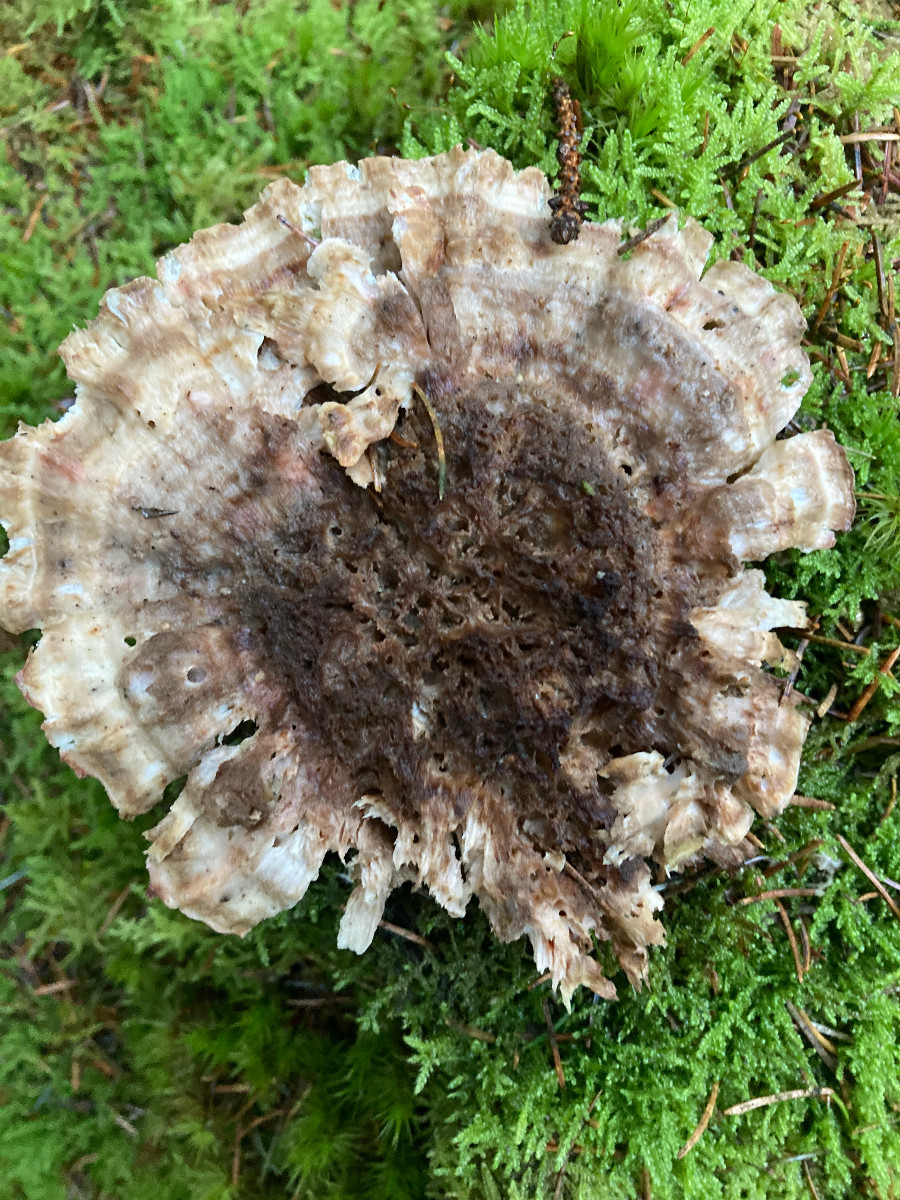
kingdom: Fungi
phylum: Basidiomycota
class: Agaricomycetes
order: Polyporales
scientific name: Polyporales
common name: poresvampordenen
